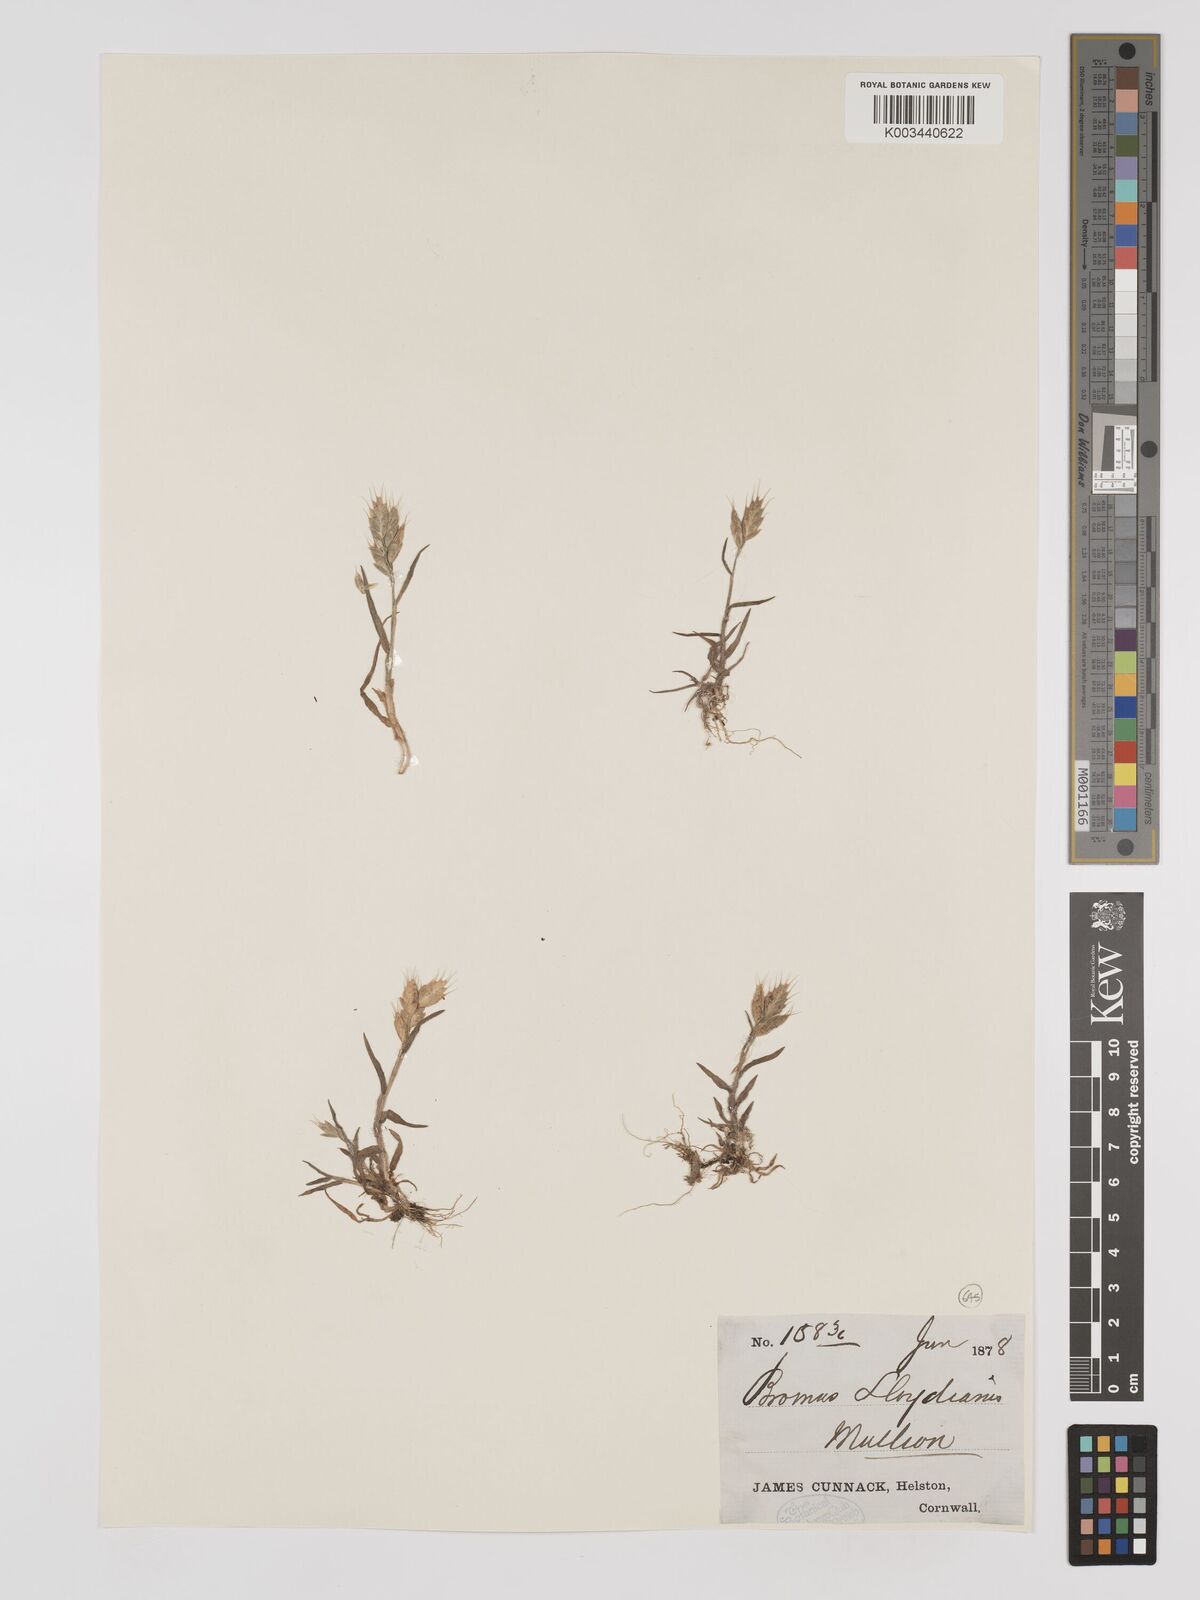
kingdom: Plantae
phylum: Tracheophyta
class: Liliopsida
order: Poales
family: Poaceae
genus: Bromus
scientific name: Bromus hordeaceus
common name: Soft brome
